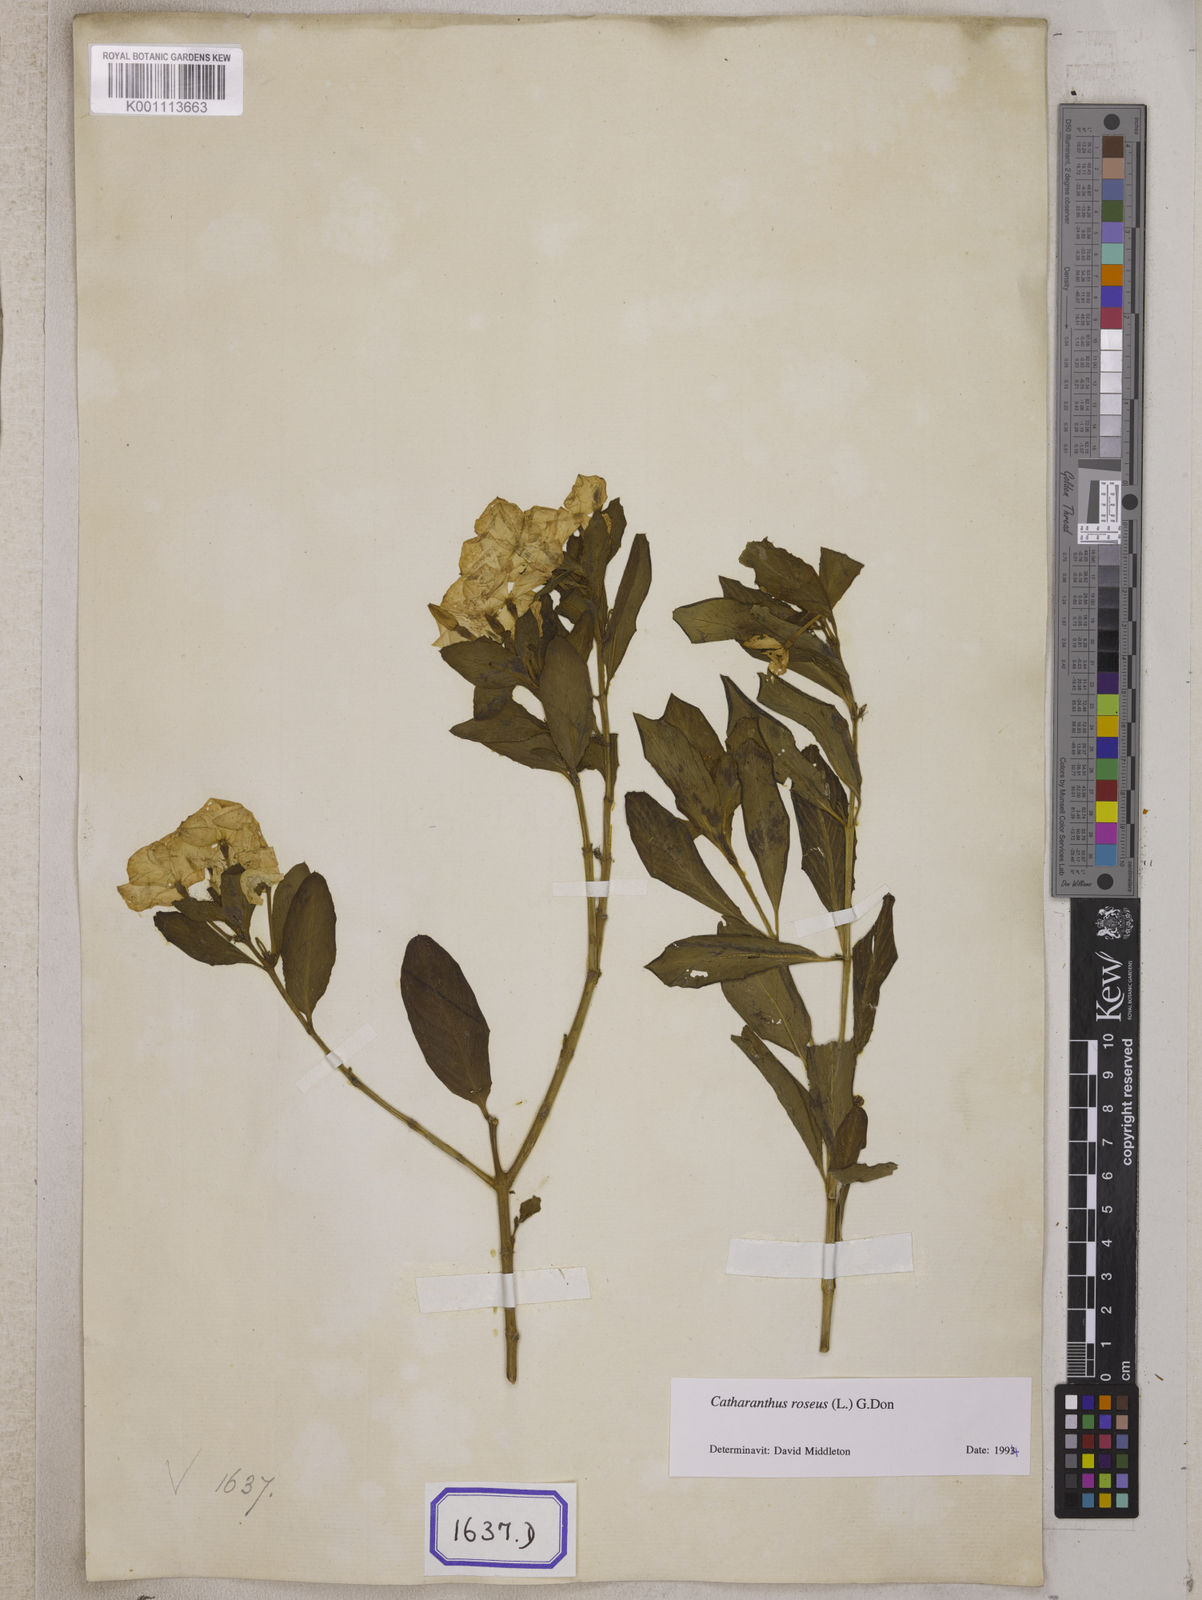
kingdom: Plantae
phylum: Tracheophyta
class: Magnoliopsida
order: Gentianales
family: Apocynaceae
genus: Catharanthus
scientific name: Catharanthus roseus
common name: Madagascar periwinkle
